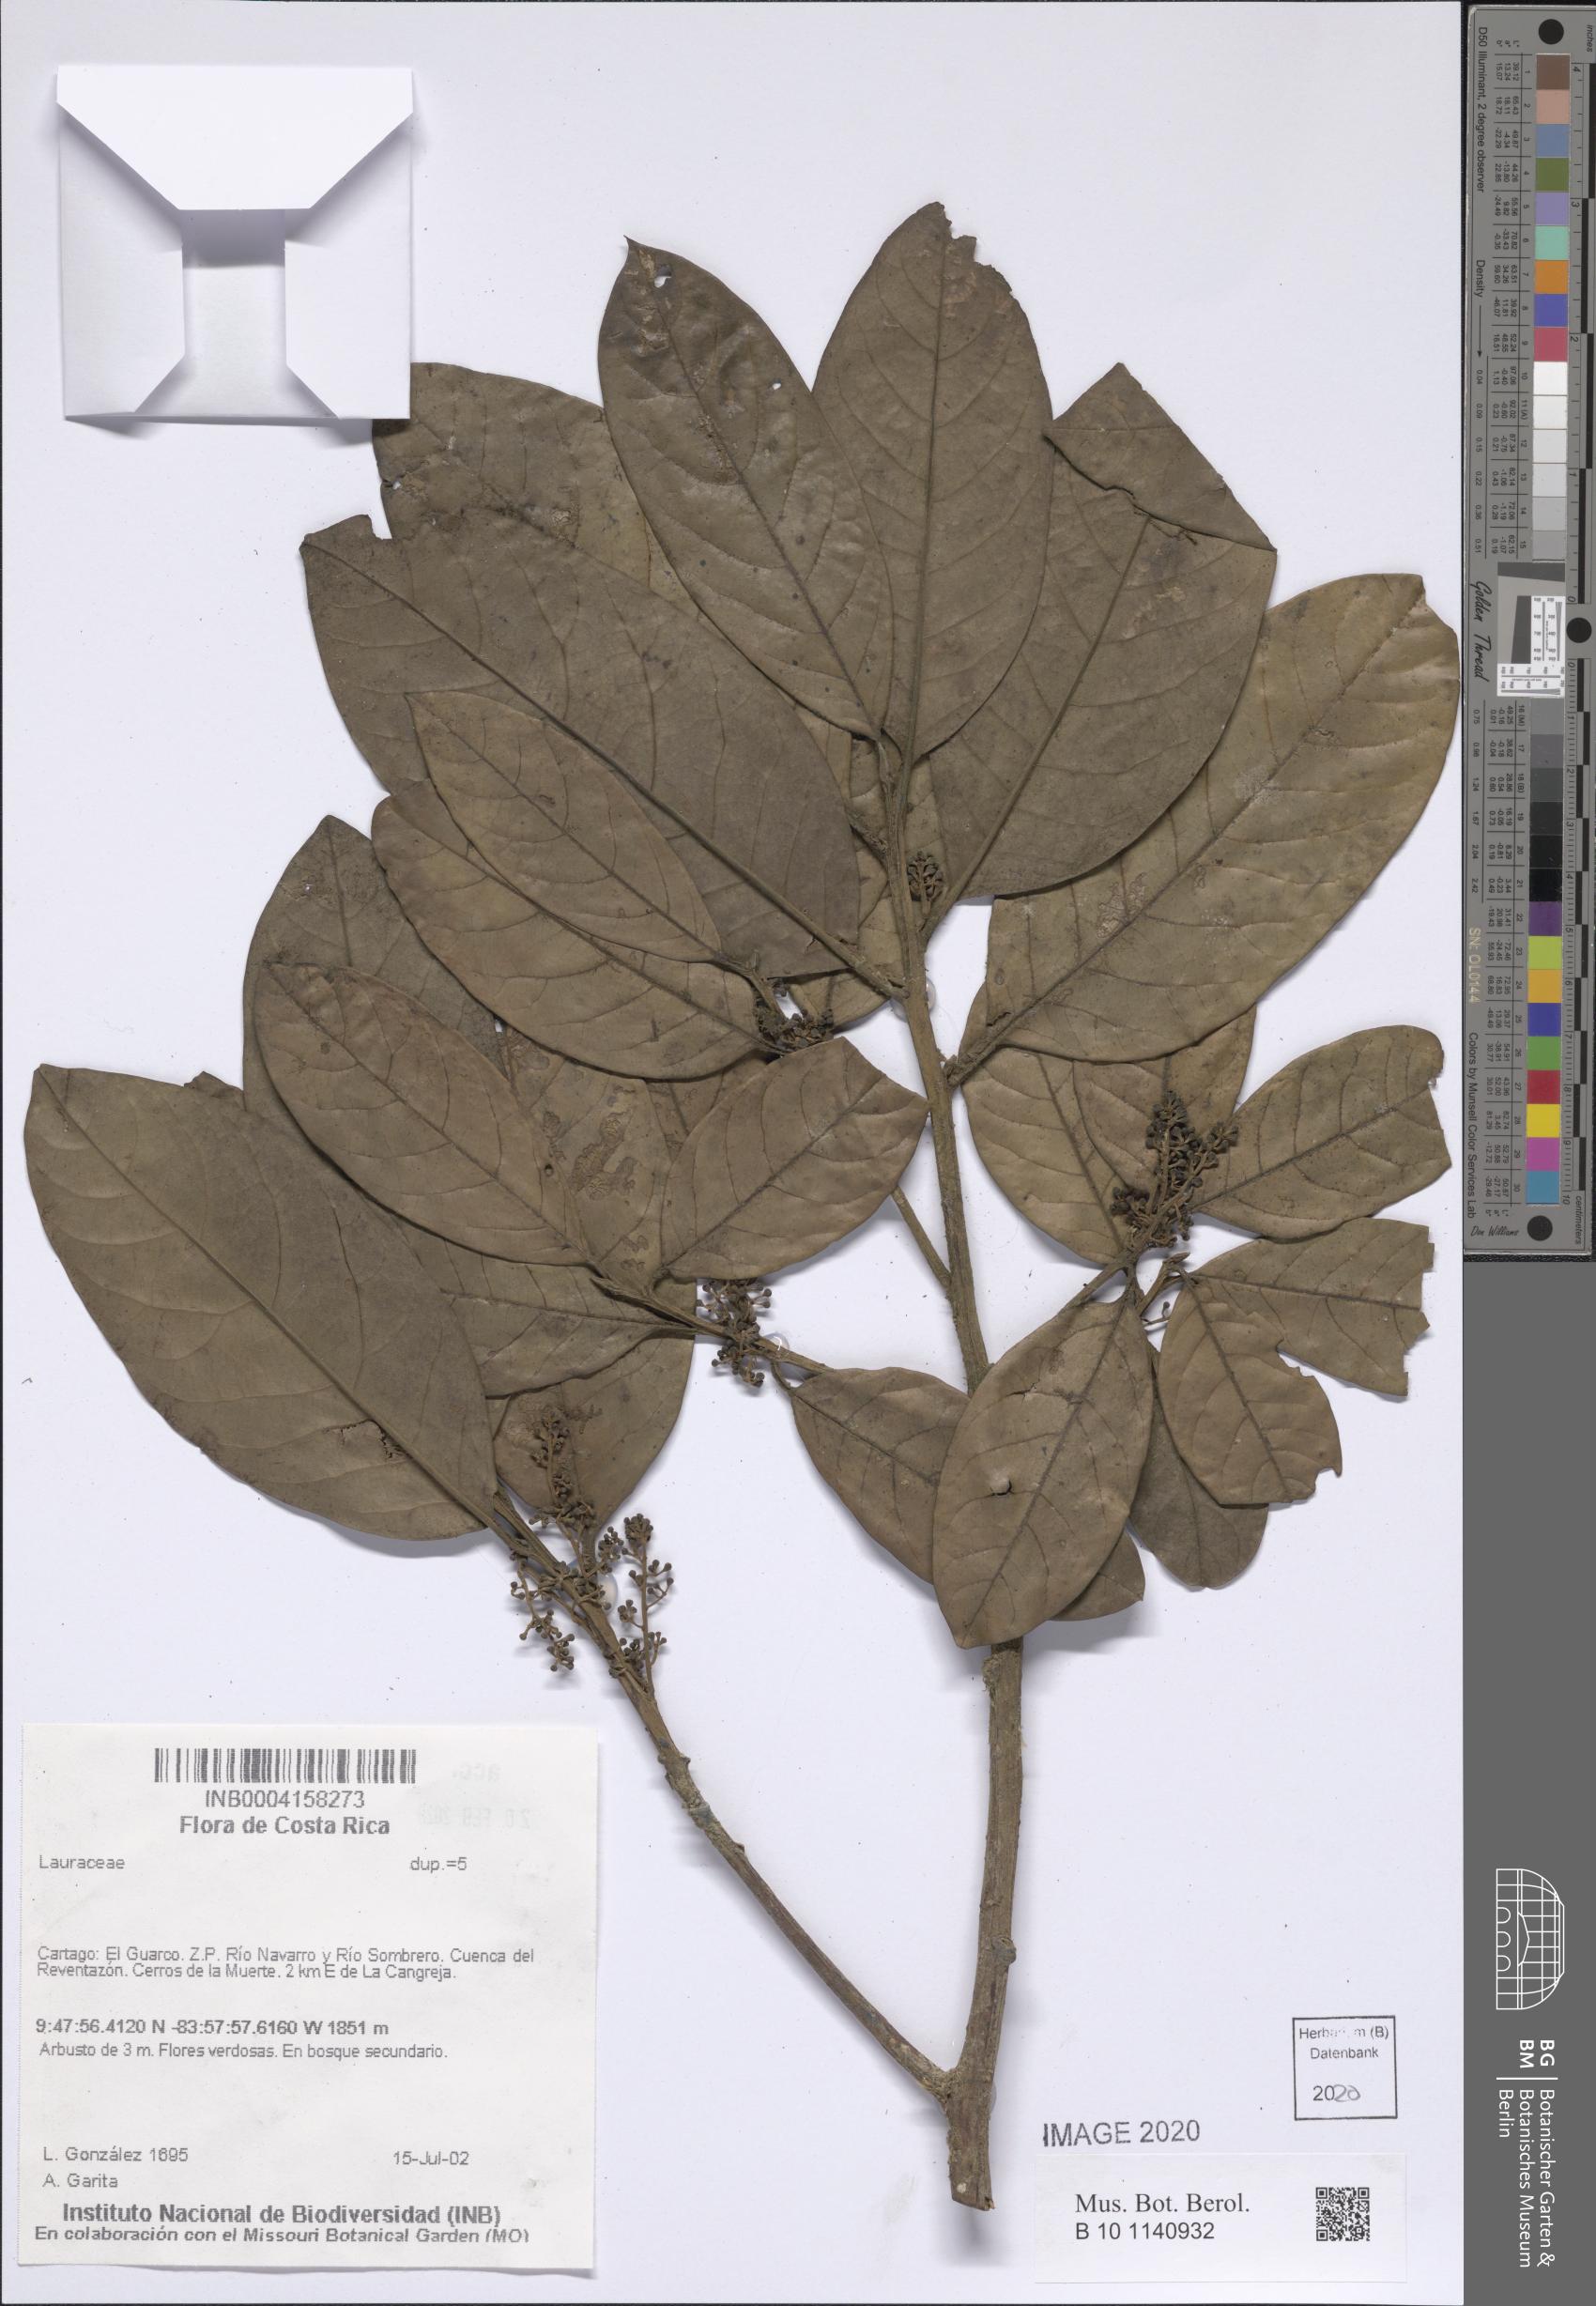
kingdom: Plantae
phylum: Tracheophyta
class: Magnoliopsida
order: Laurales
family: Lauraceae
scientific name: Lauraceae
